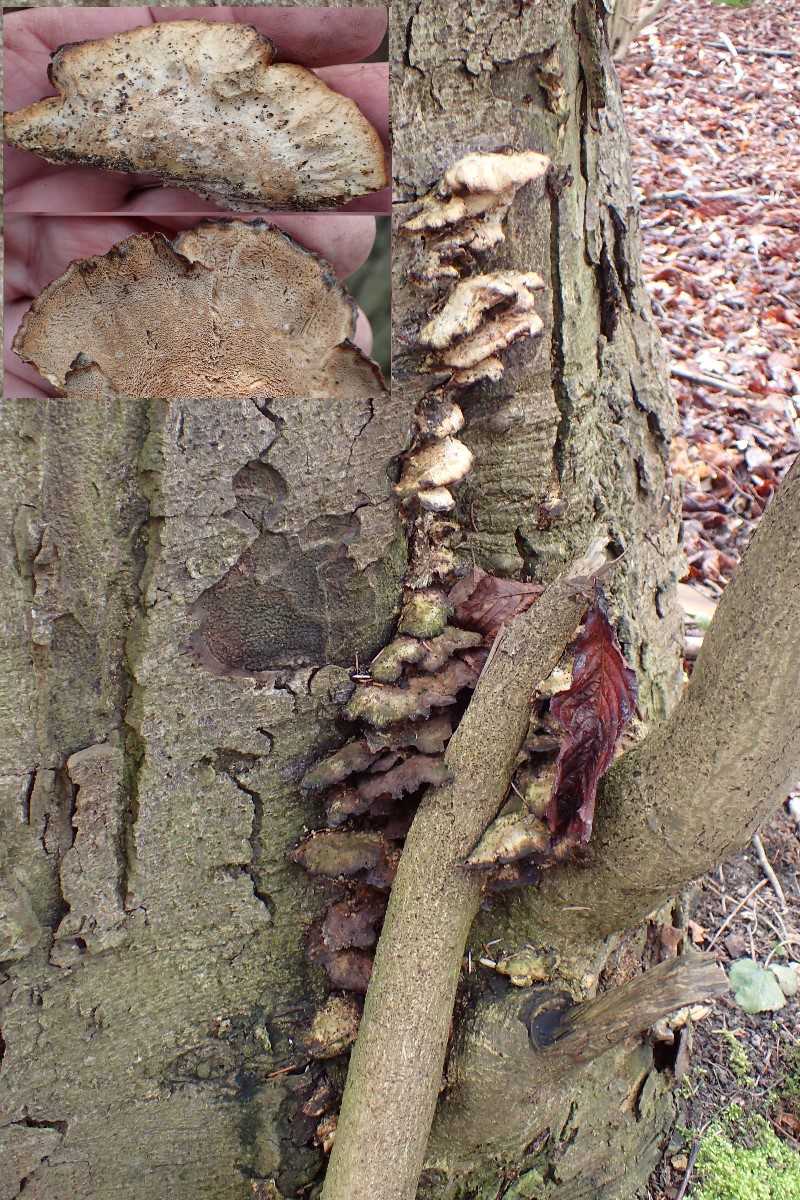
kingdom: Fungi
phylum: Basidiomycota
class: Agaricomycetes
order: Hymenochaetales
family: Hymenochaetaceae
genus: Xanthoporia
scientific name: Xanthoporia radiata
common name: elle-spejlporesvamp
